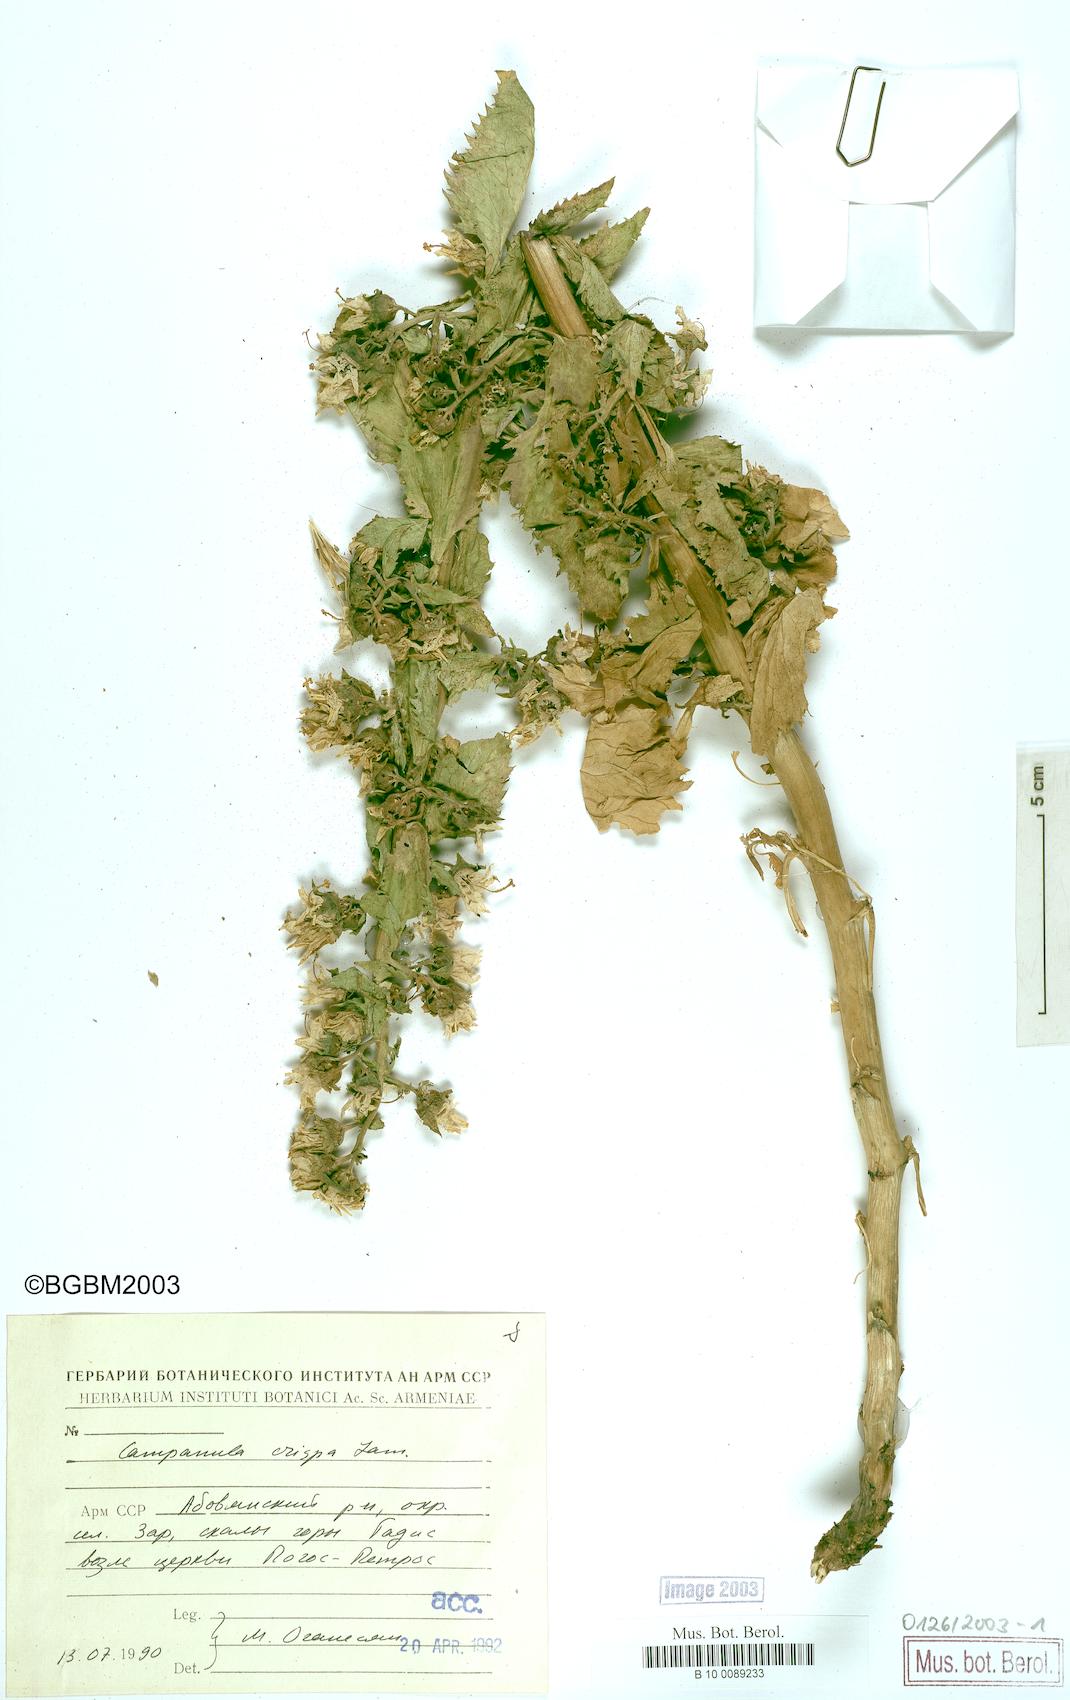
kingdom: Plantae
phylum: Tracheophyta
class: Magnoliopsida
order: Asterales
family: Campanulaceae
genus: Campanula
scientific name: Campanula crispa
